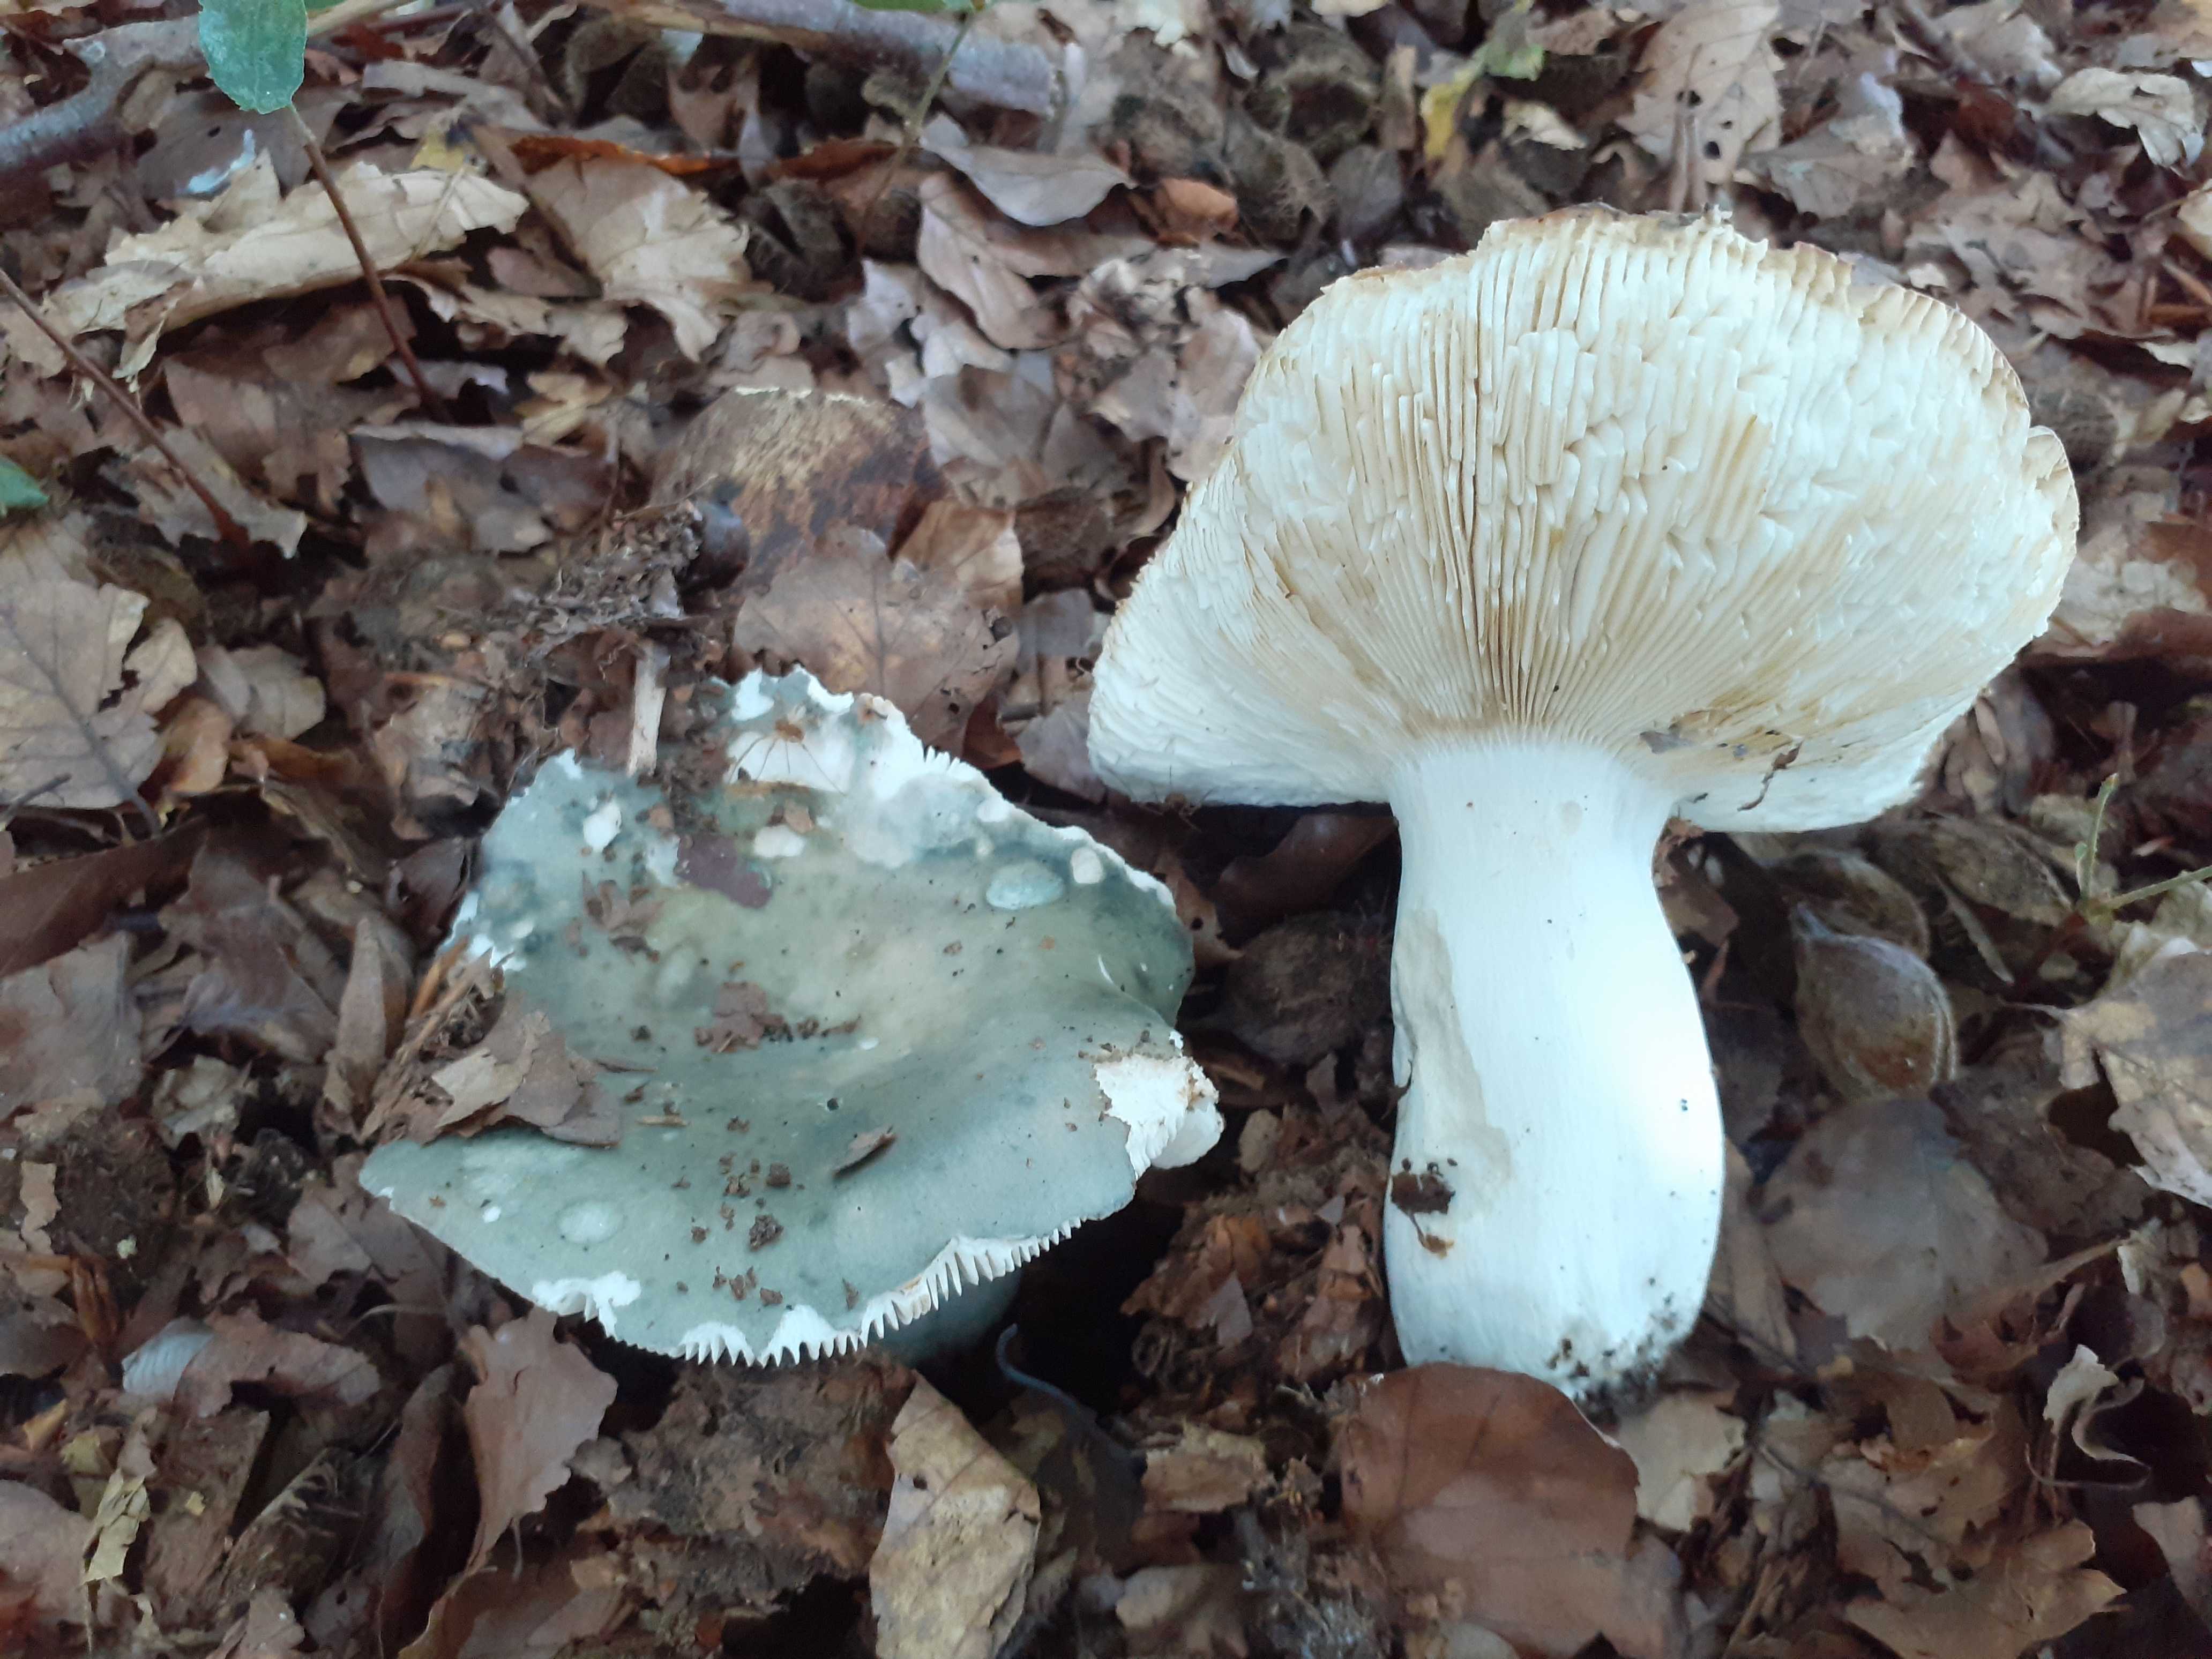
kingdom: Fungi
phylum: Basidiomycota
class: Agaricomycetes
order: Russulales
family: Russulaceae
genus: Russula
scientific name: Russula heterophylla
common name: gaffelbladet skørhat
